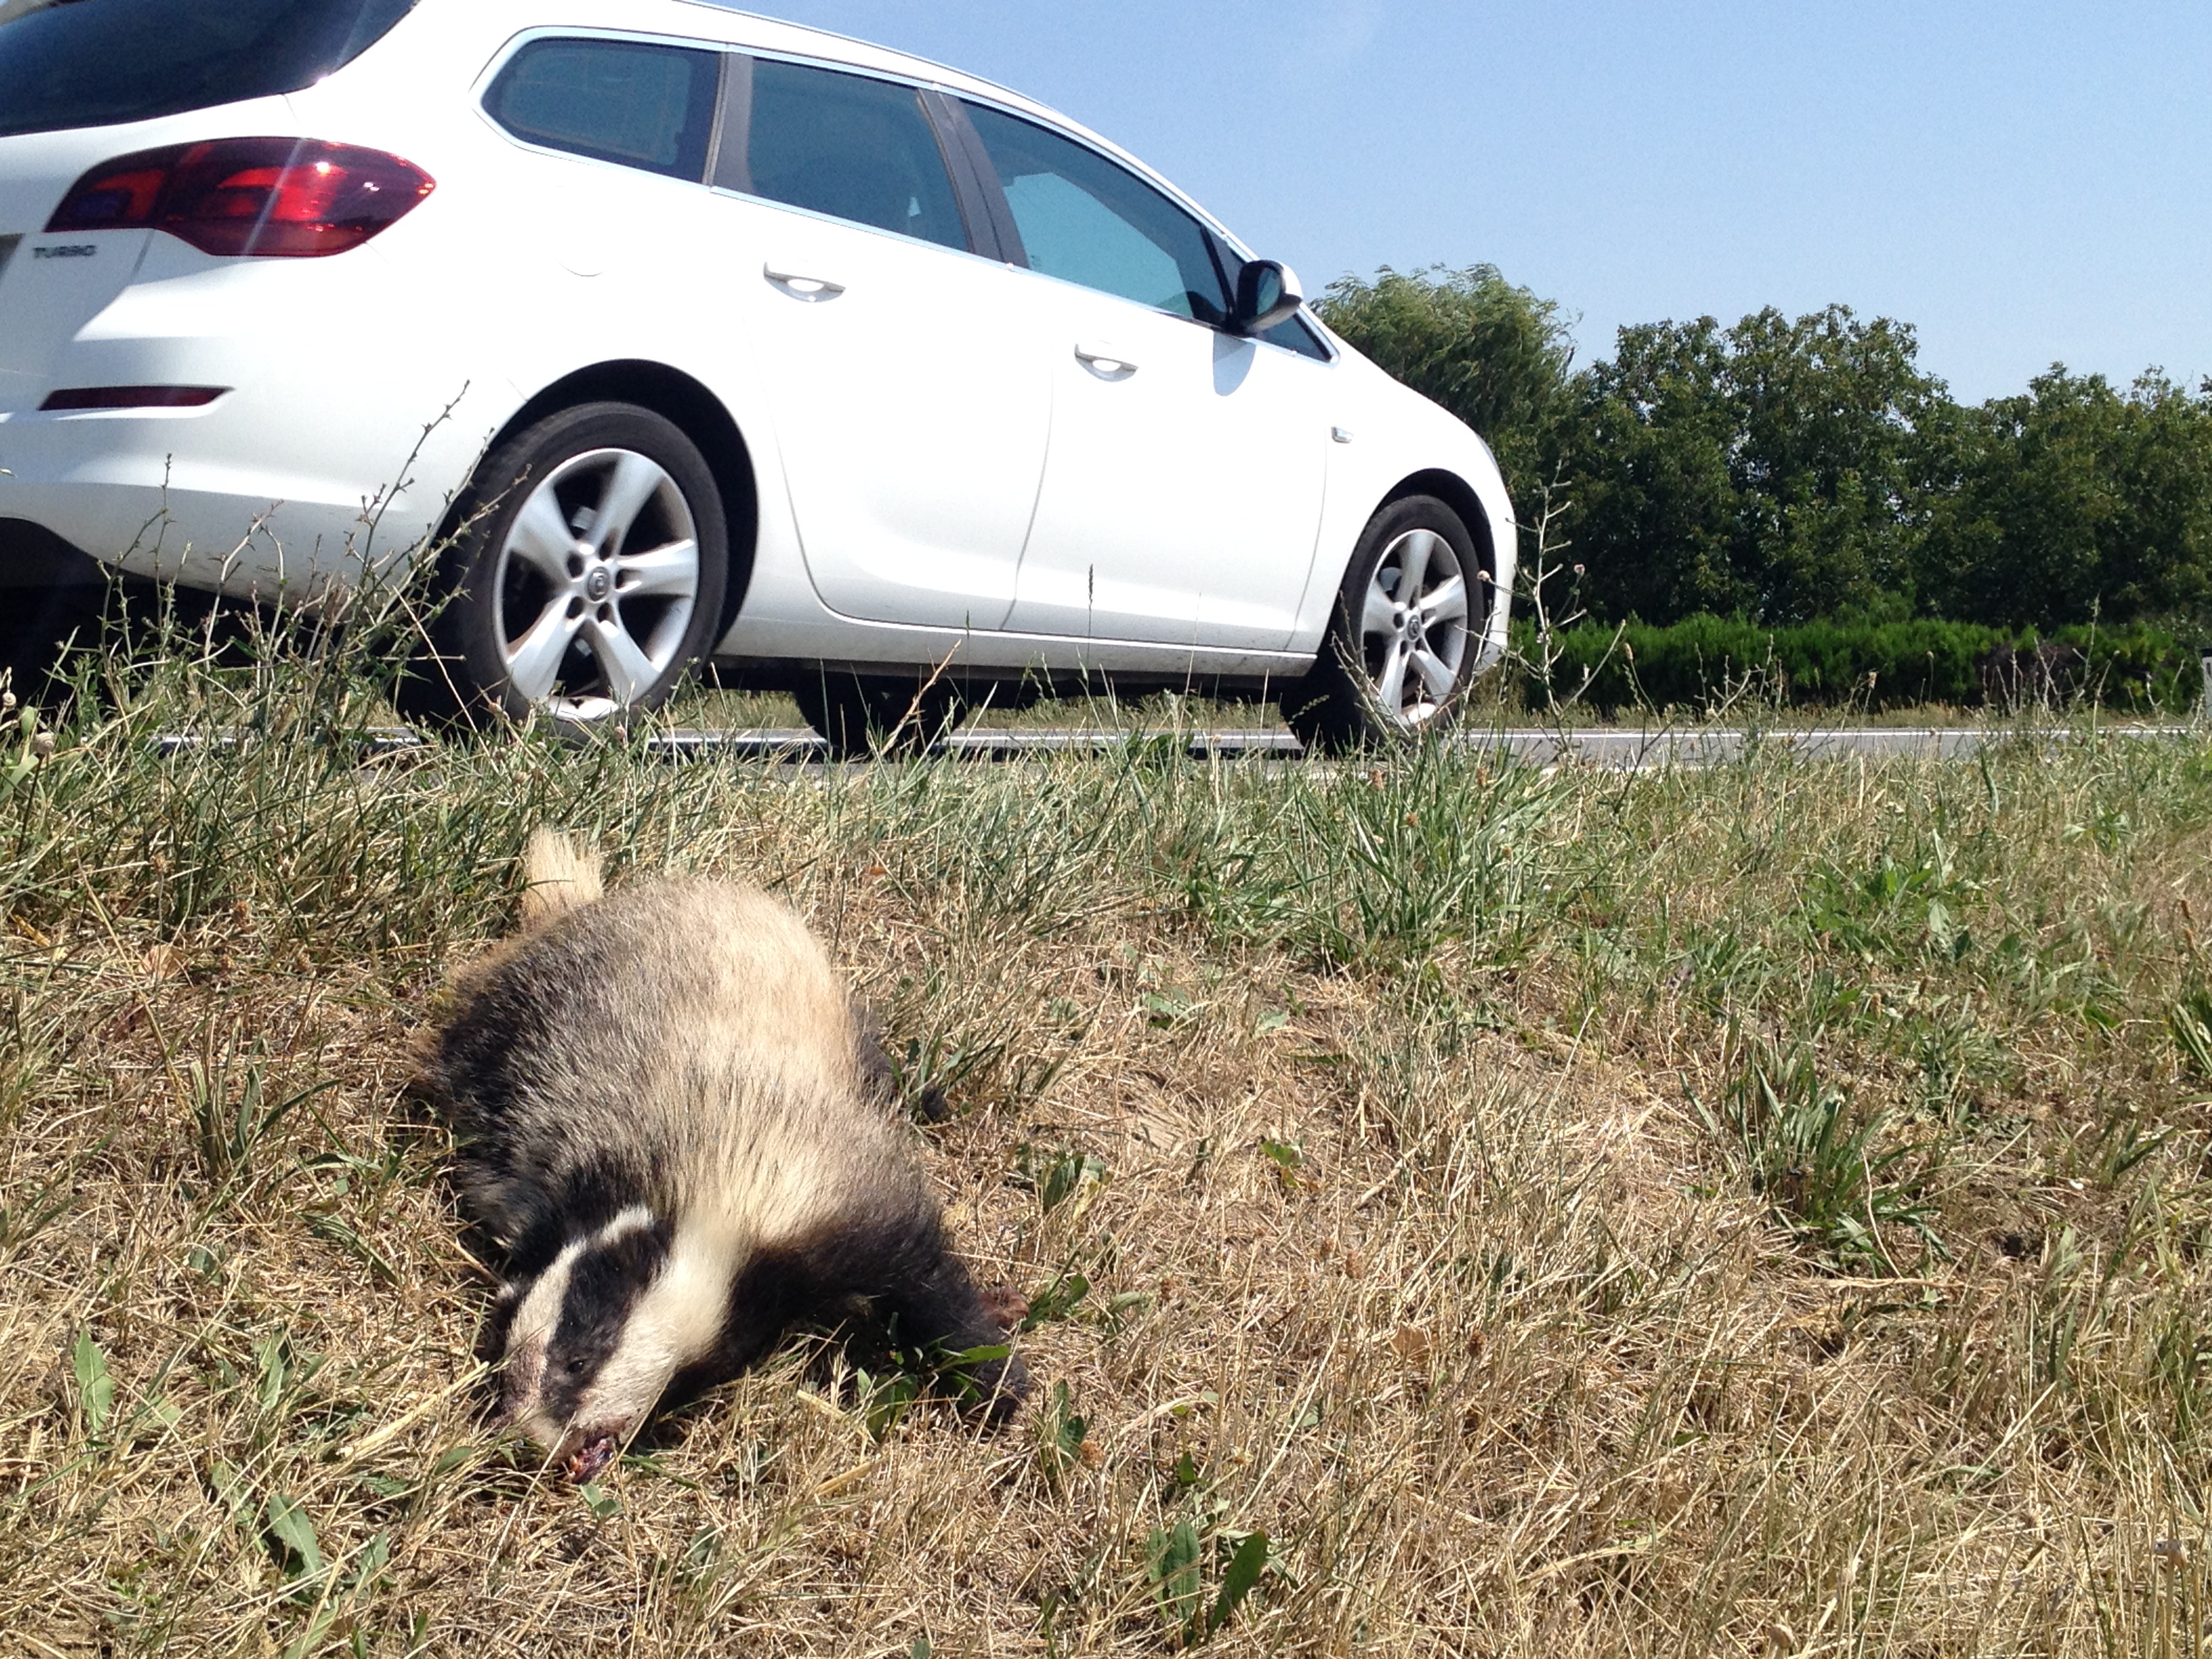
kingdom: Animalia
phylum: Chordata
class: Mammalia
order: Carnivora
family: Mustelidae
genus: Meles
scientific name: Meles meles
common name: Eurasian badger
